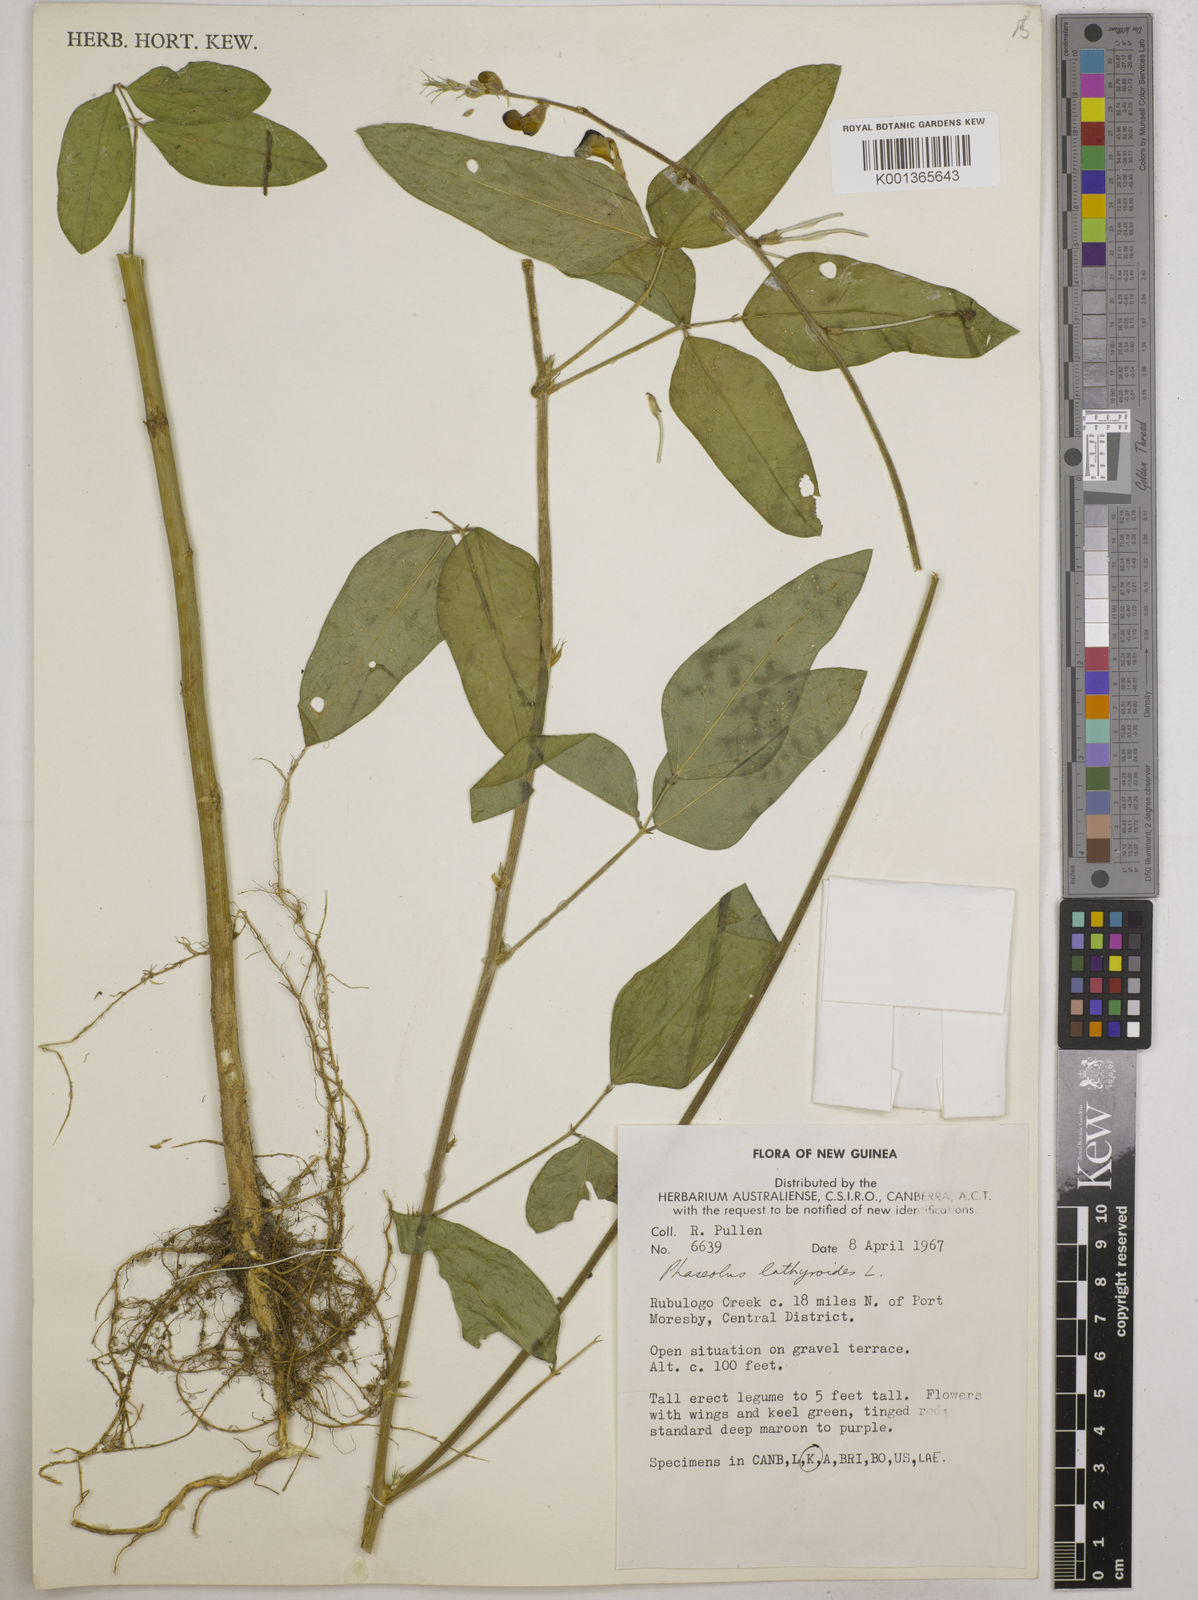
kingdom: Plantae
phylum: Tracheophyta
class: Magnoliopsida
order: Fabales
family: Fabaceae
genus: Macroptilium
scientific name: Macroptilium lathyroides
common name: Wild bushbean
